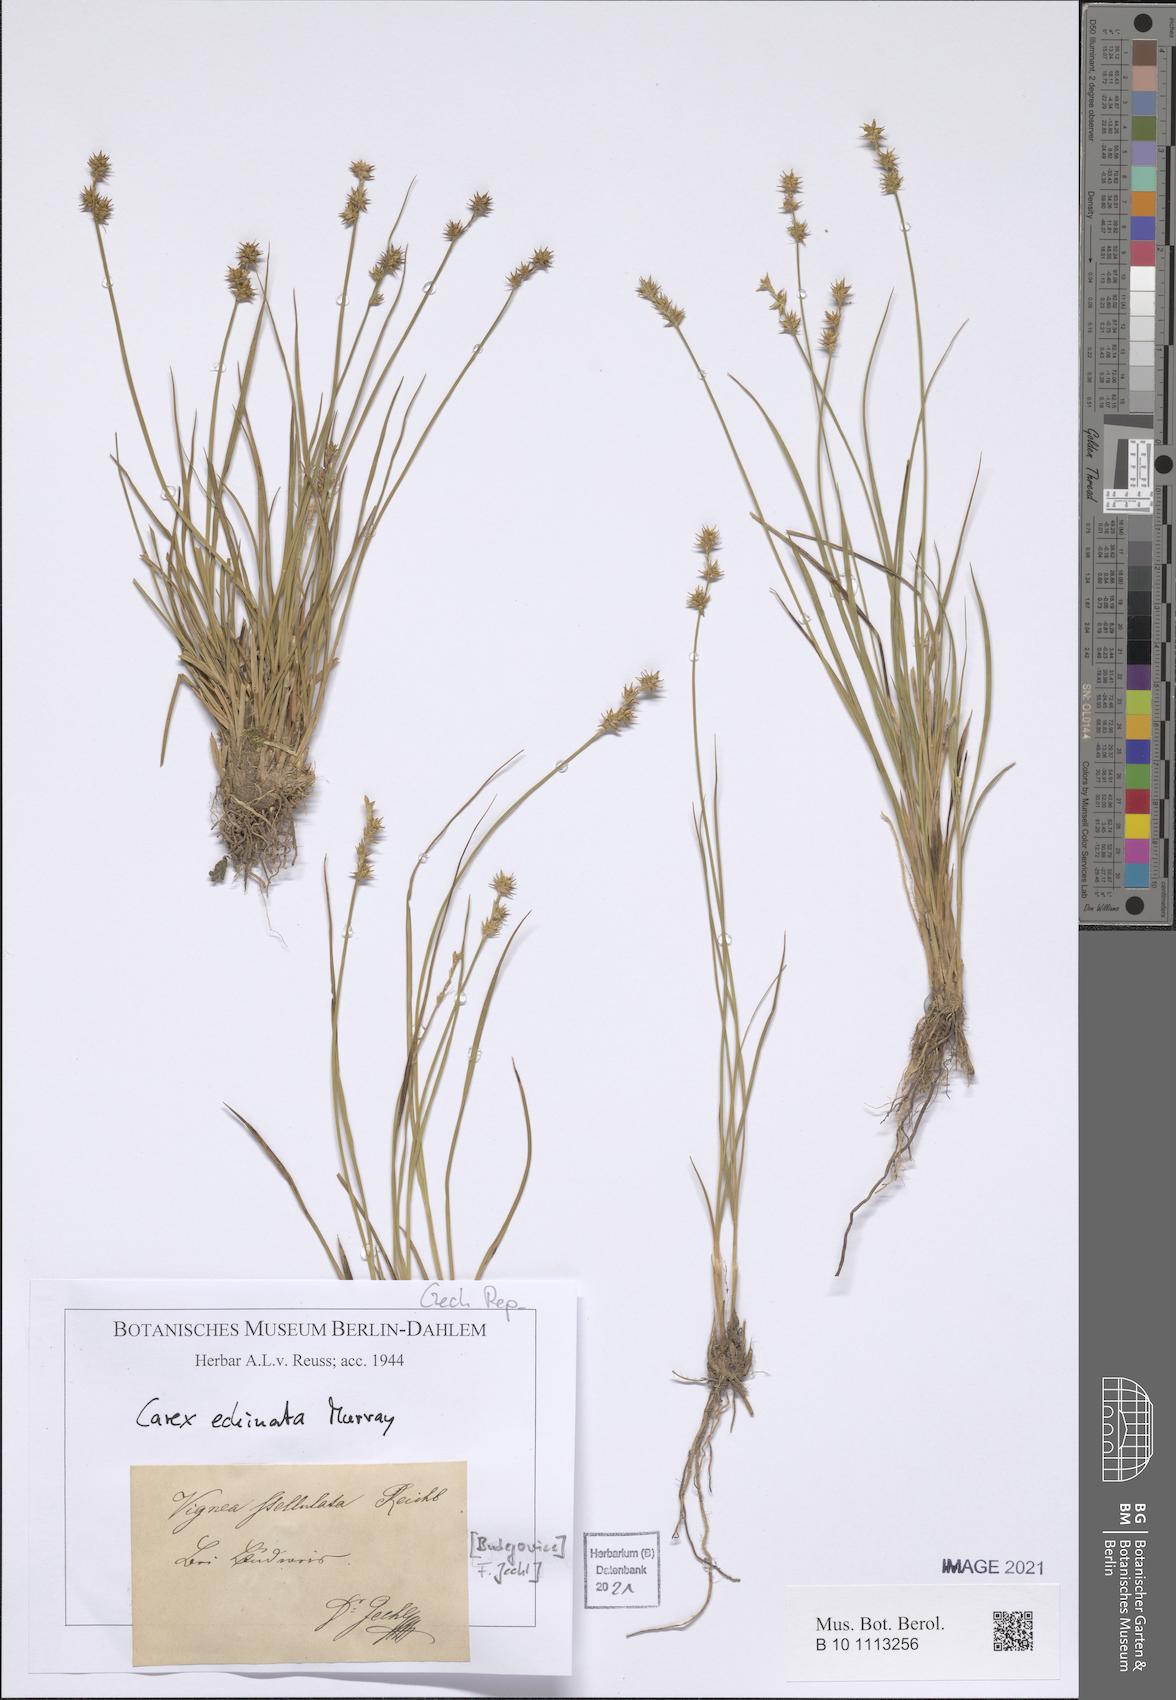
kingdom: Plantae
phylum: Tracheophyta
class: Liliopsida
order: Poales
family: Cyperaceae
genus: Carex
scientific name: Carex echinata
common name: Star sedge
